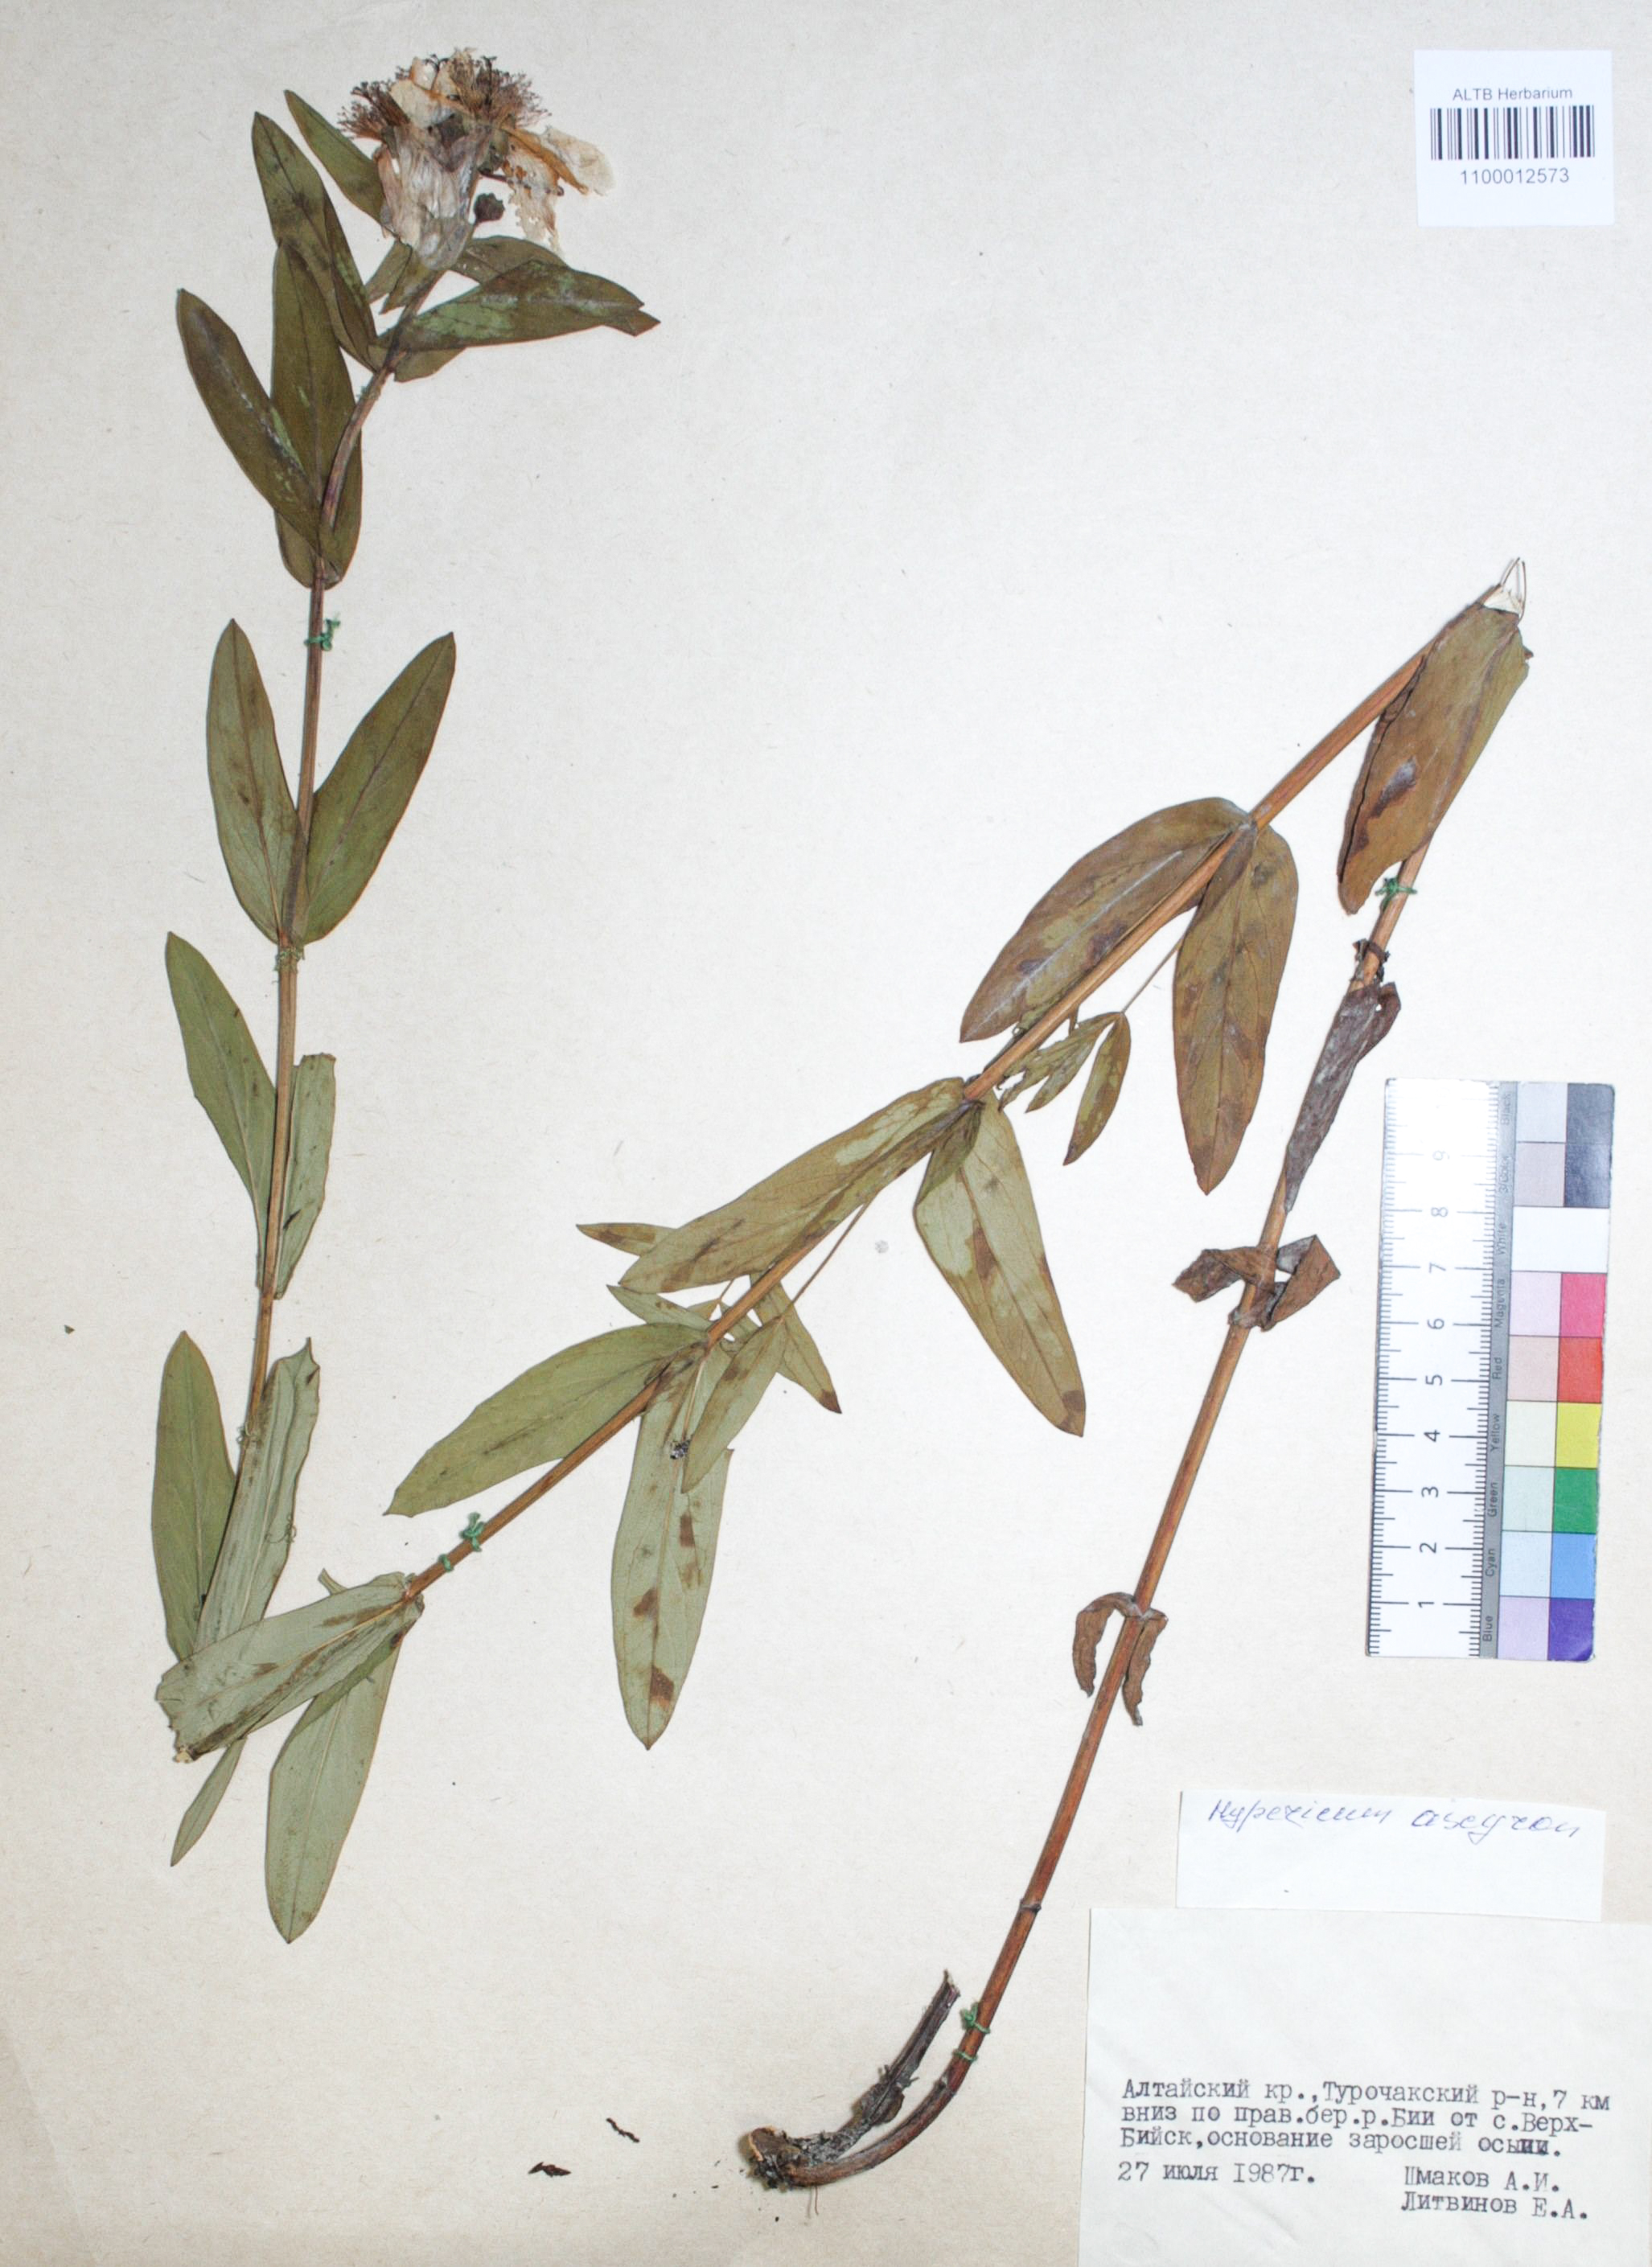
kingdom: Plantae
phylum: Tracheophyta
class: Magnoliopsida
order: Malpighiales
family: Hypericaceae
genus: Hypericum
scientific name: Hypericum ascyron
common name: Giant st. john's-wort
